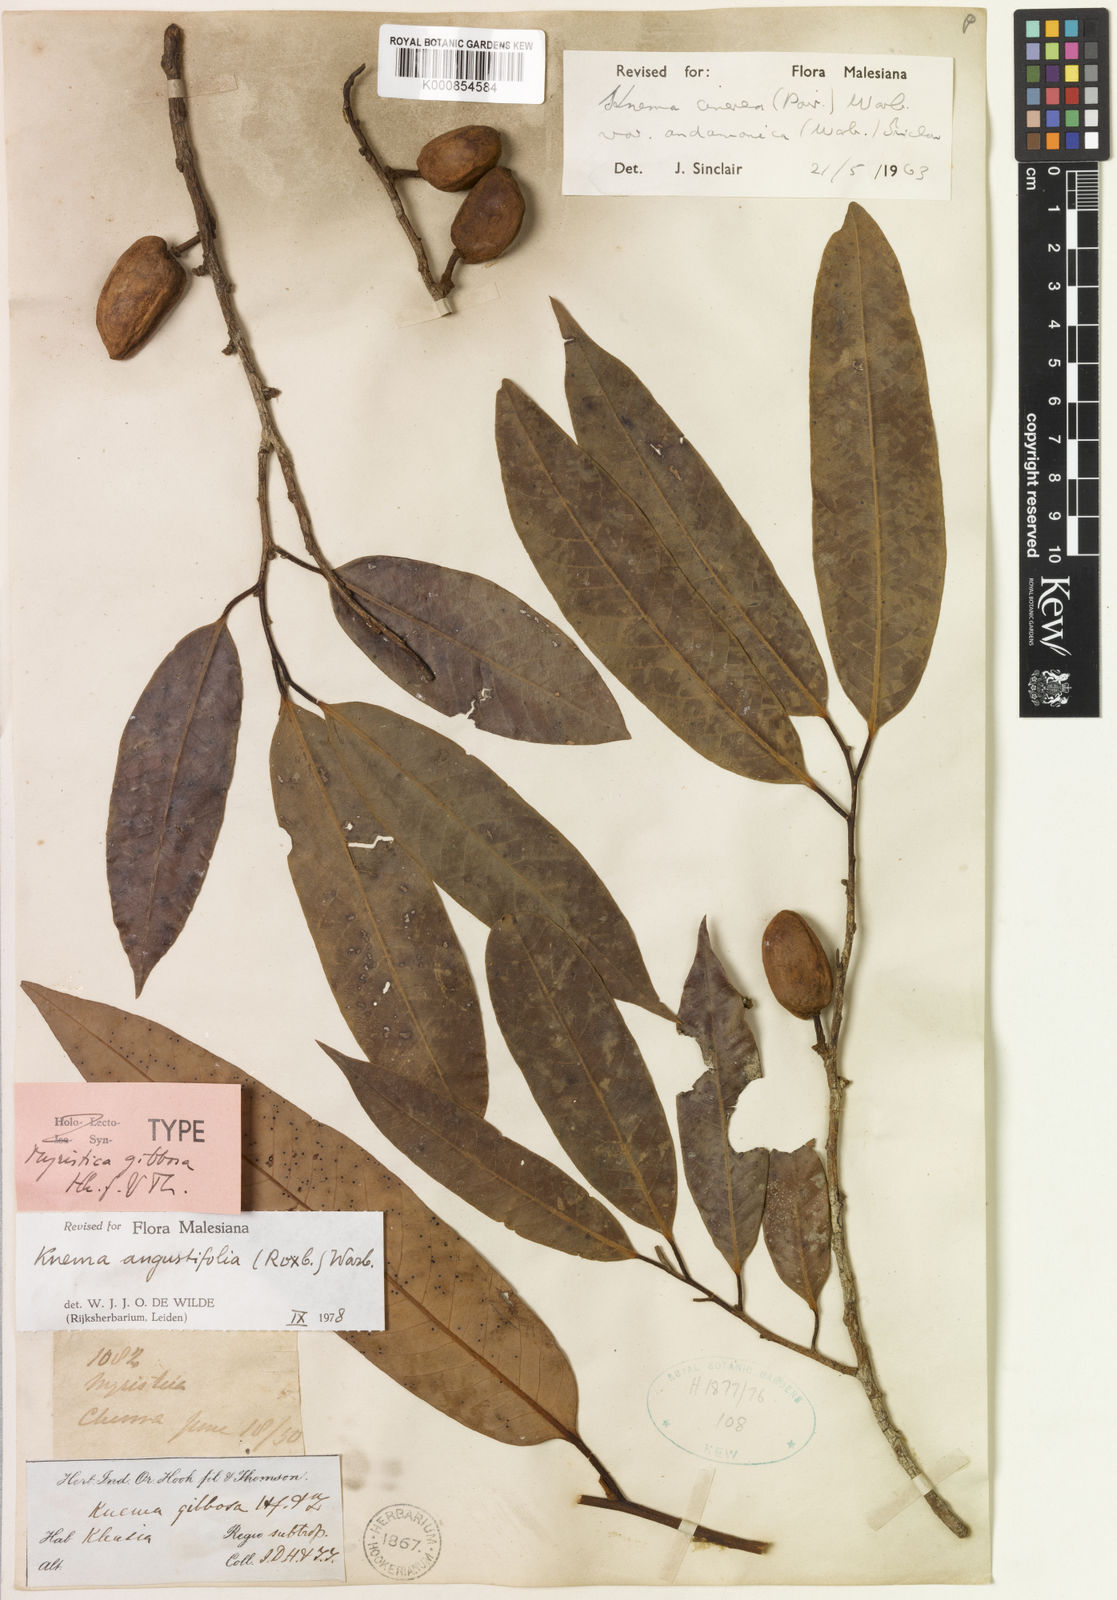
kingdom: Plantae
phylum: Tracheophyta
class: Magnoliopsida
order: Magnoliales
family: Myristicaceae
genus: Knema
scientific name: Knema angustifolia
